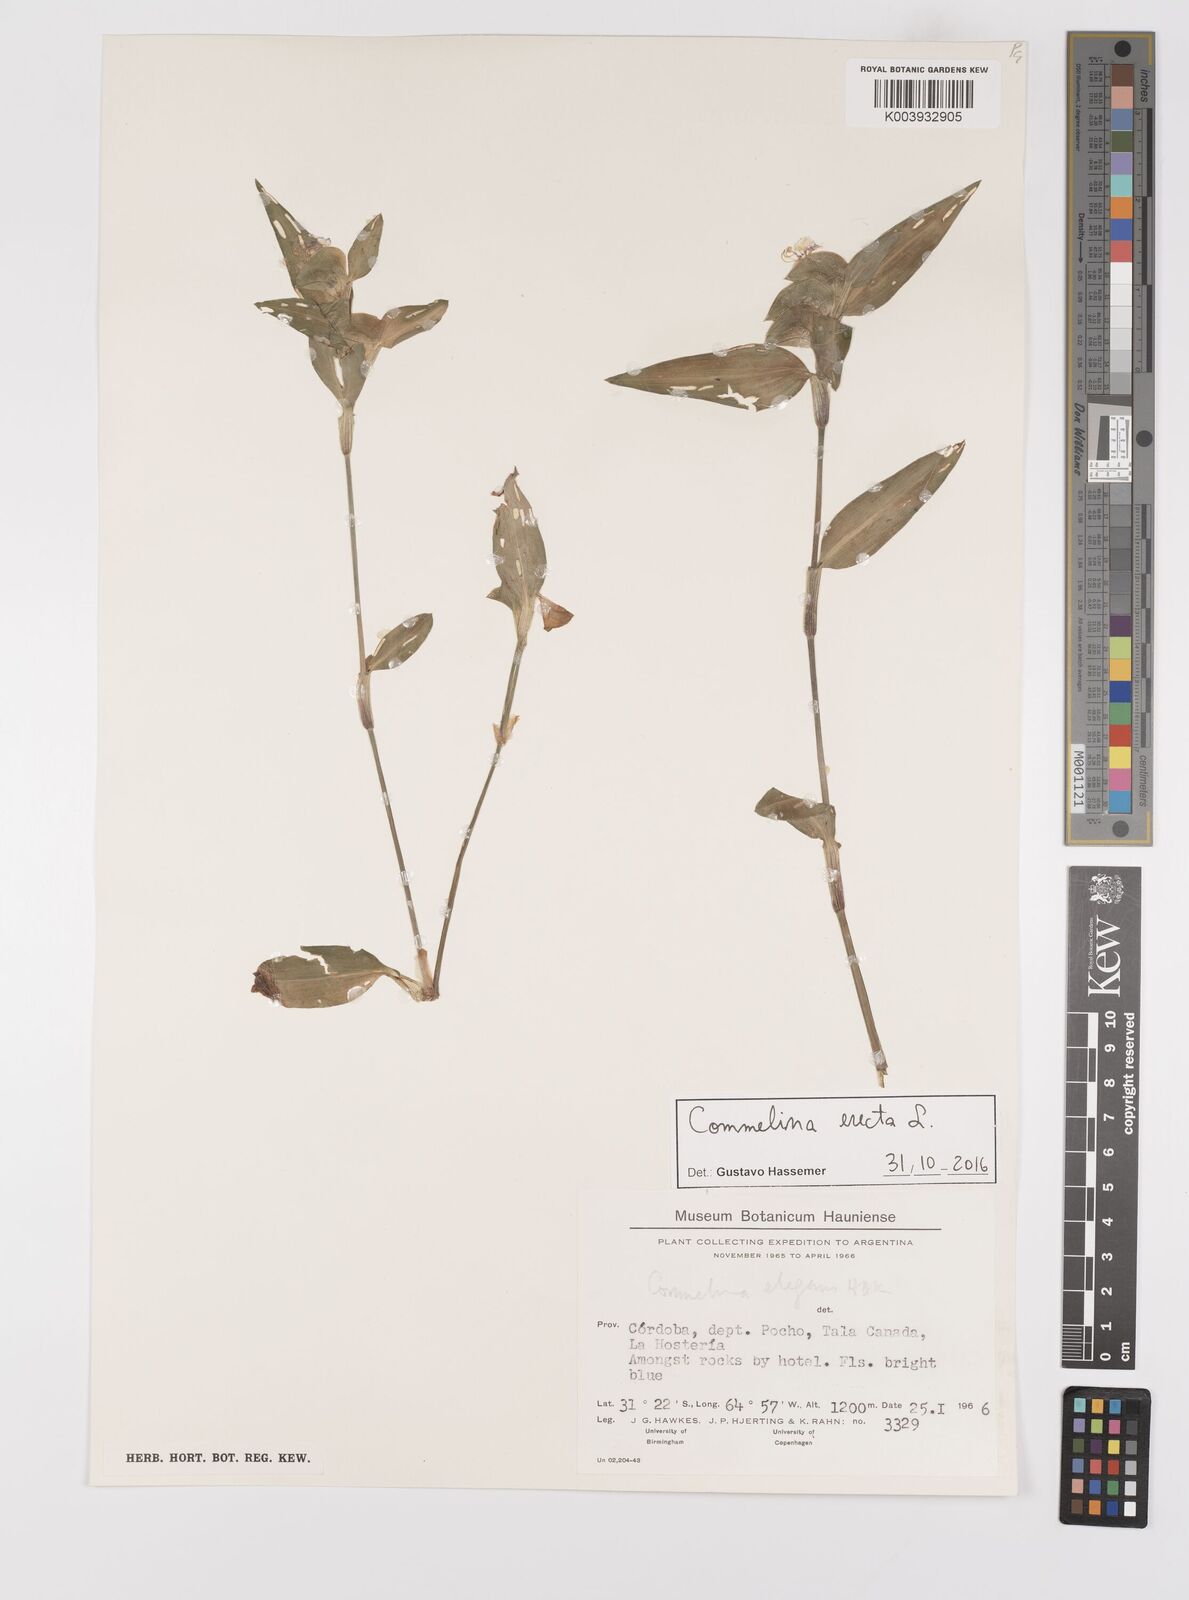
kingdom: Plantae
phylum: Tracheophyta
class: Liliopsida
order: Commelinales
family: Commelinaceae
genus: Commelina
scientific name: Commelina erecta
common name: Blousel blommetjie
